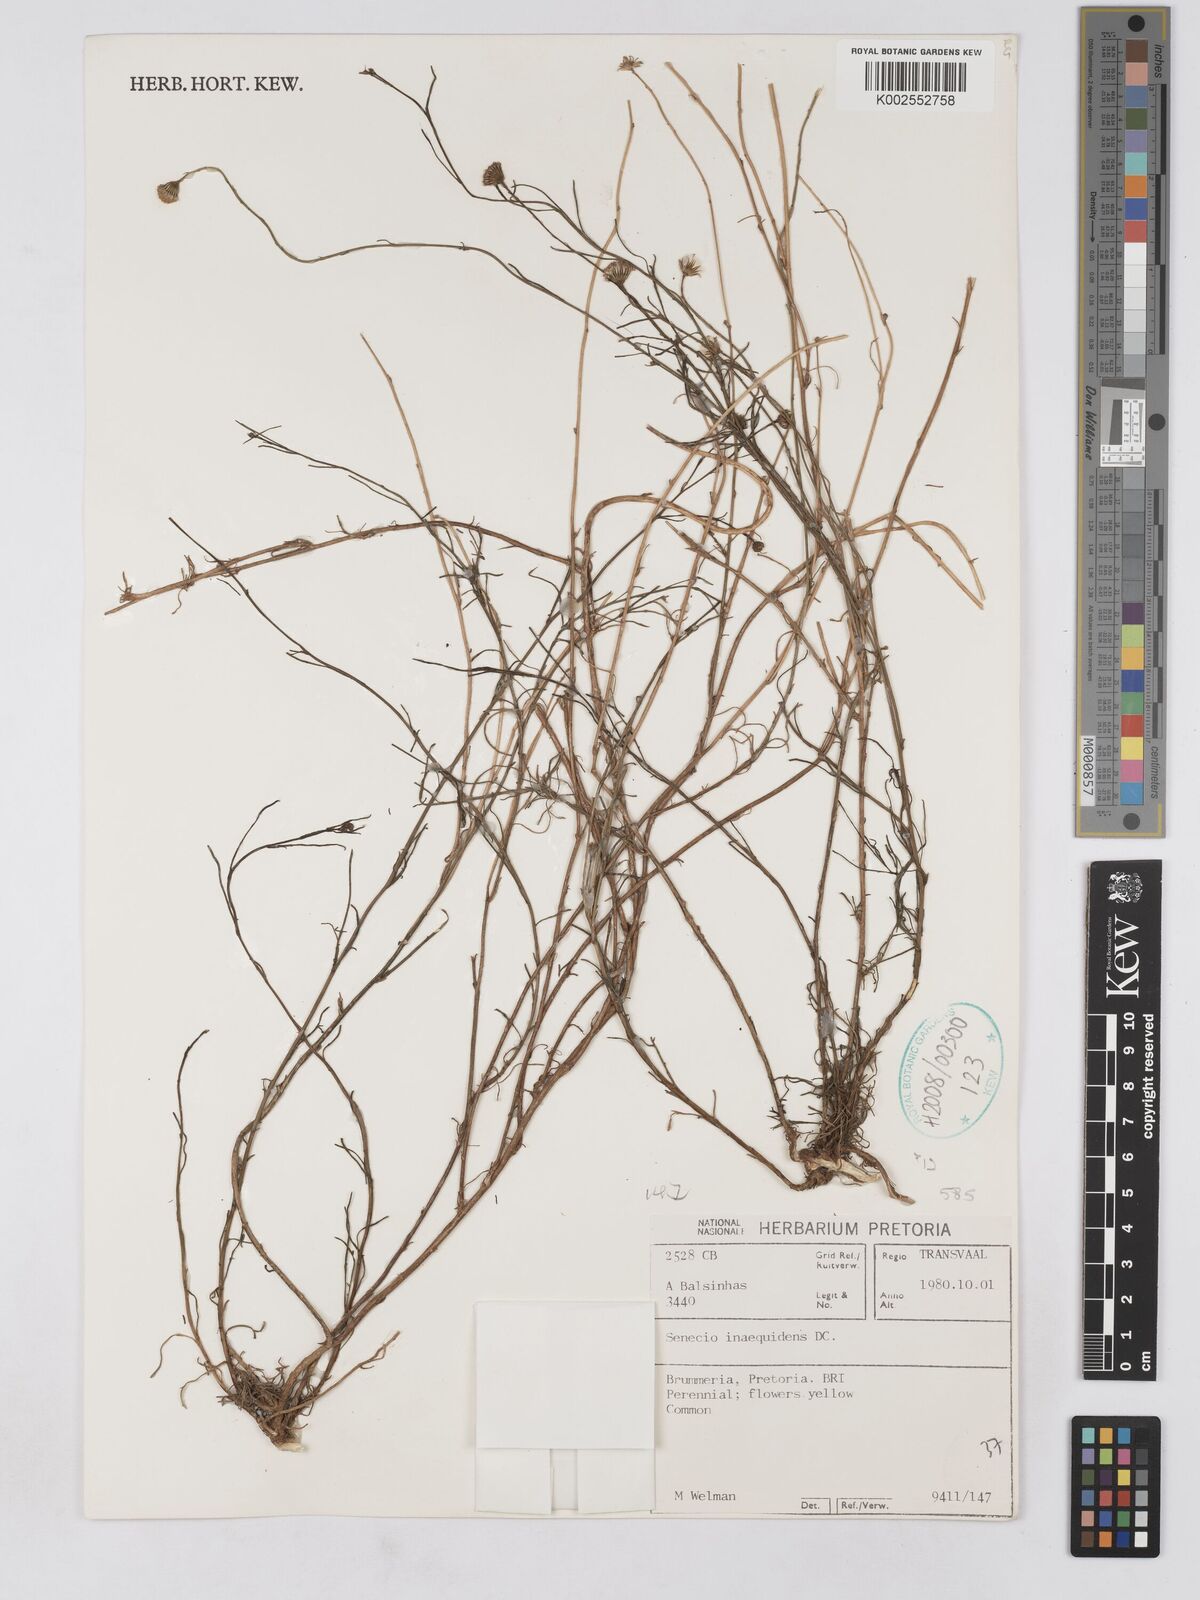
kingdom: Plantae
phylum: Tracheophyta
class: Magnoliopsida
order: Asterales
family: Asteraceae
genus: Senecio
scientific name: Senecio madagascariensis
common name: Madagascar ragwort
